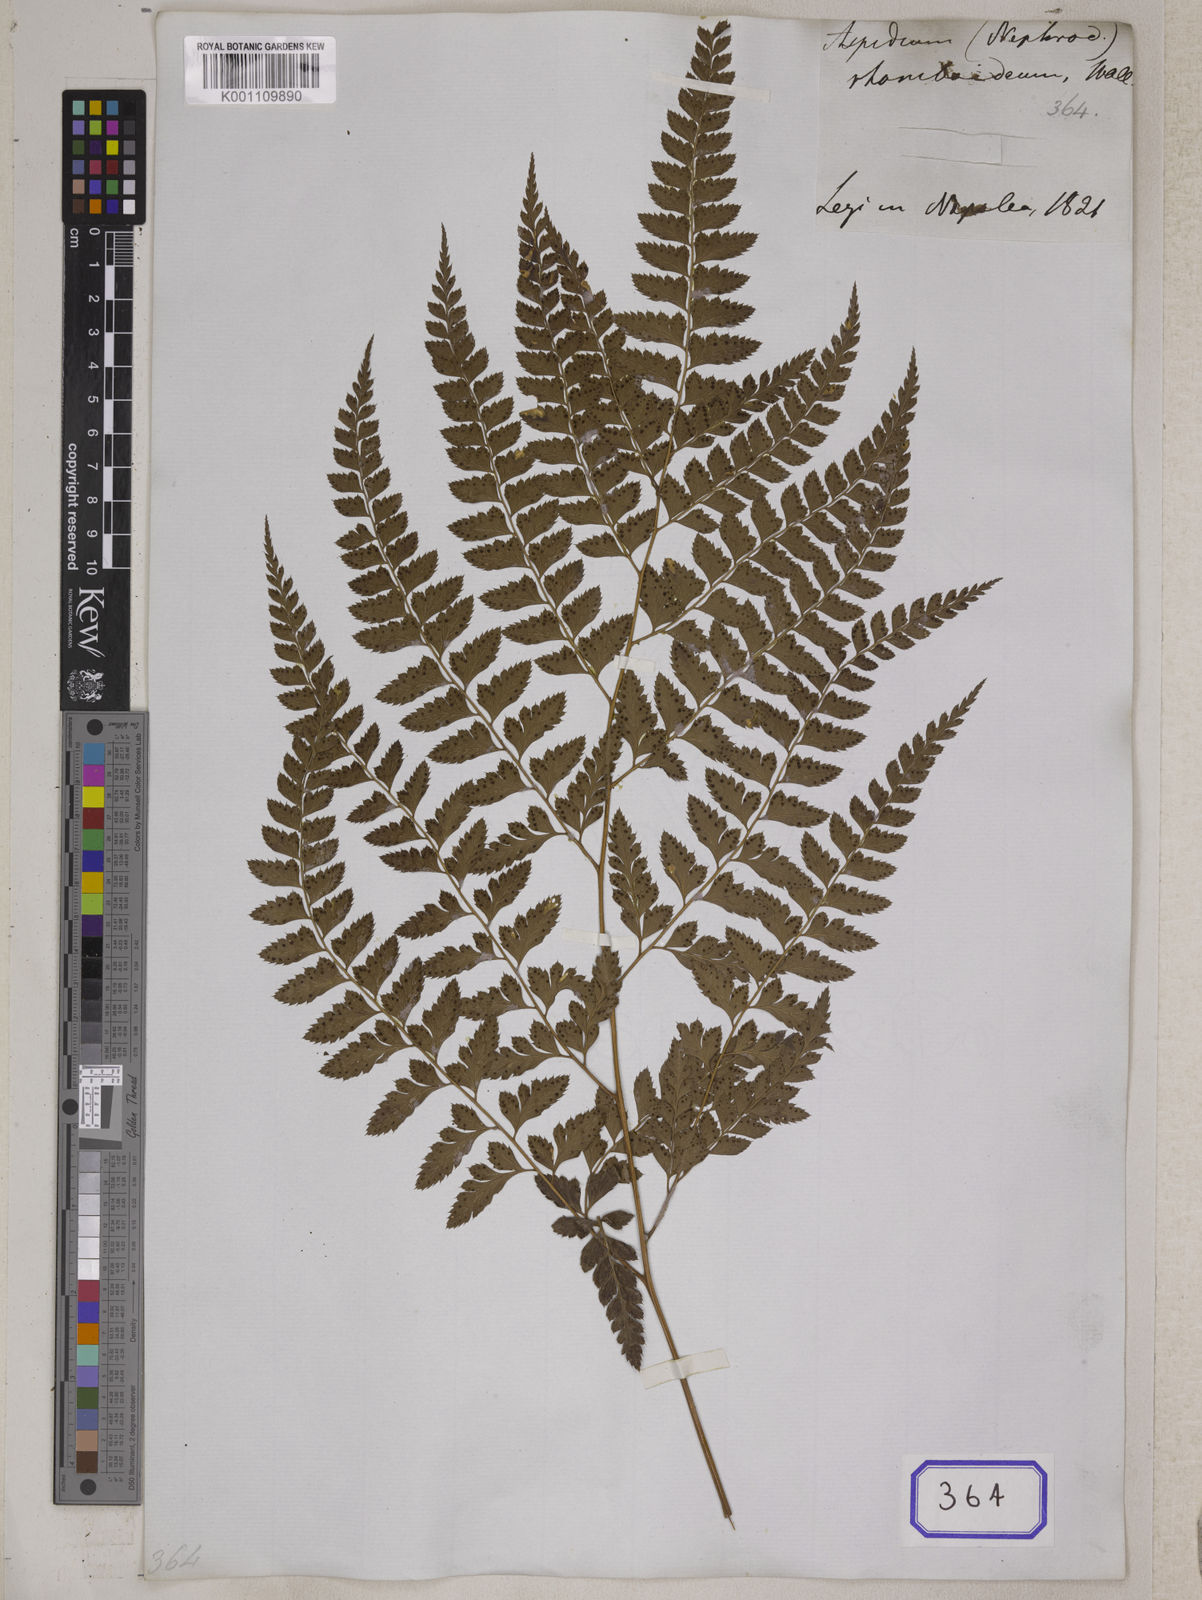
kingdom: Plantae
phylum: Tracheophyta
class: Polypodiopsida
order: Polypodiales
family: Dryopteridaceae
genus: Arachniodes
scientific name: Arachniodes rhomboidea
